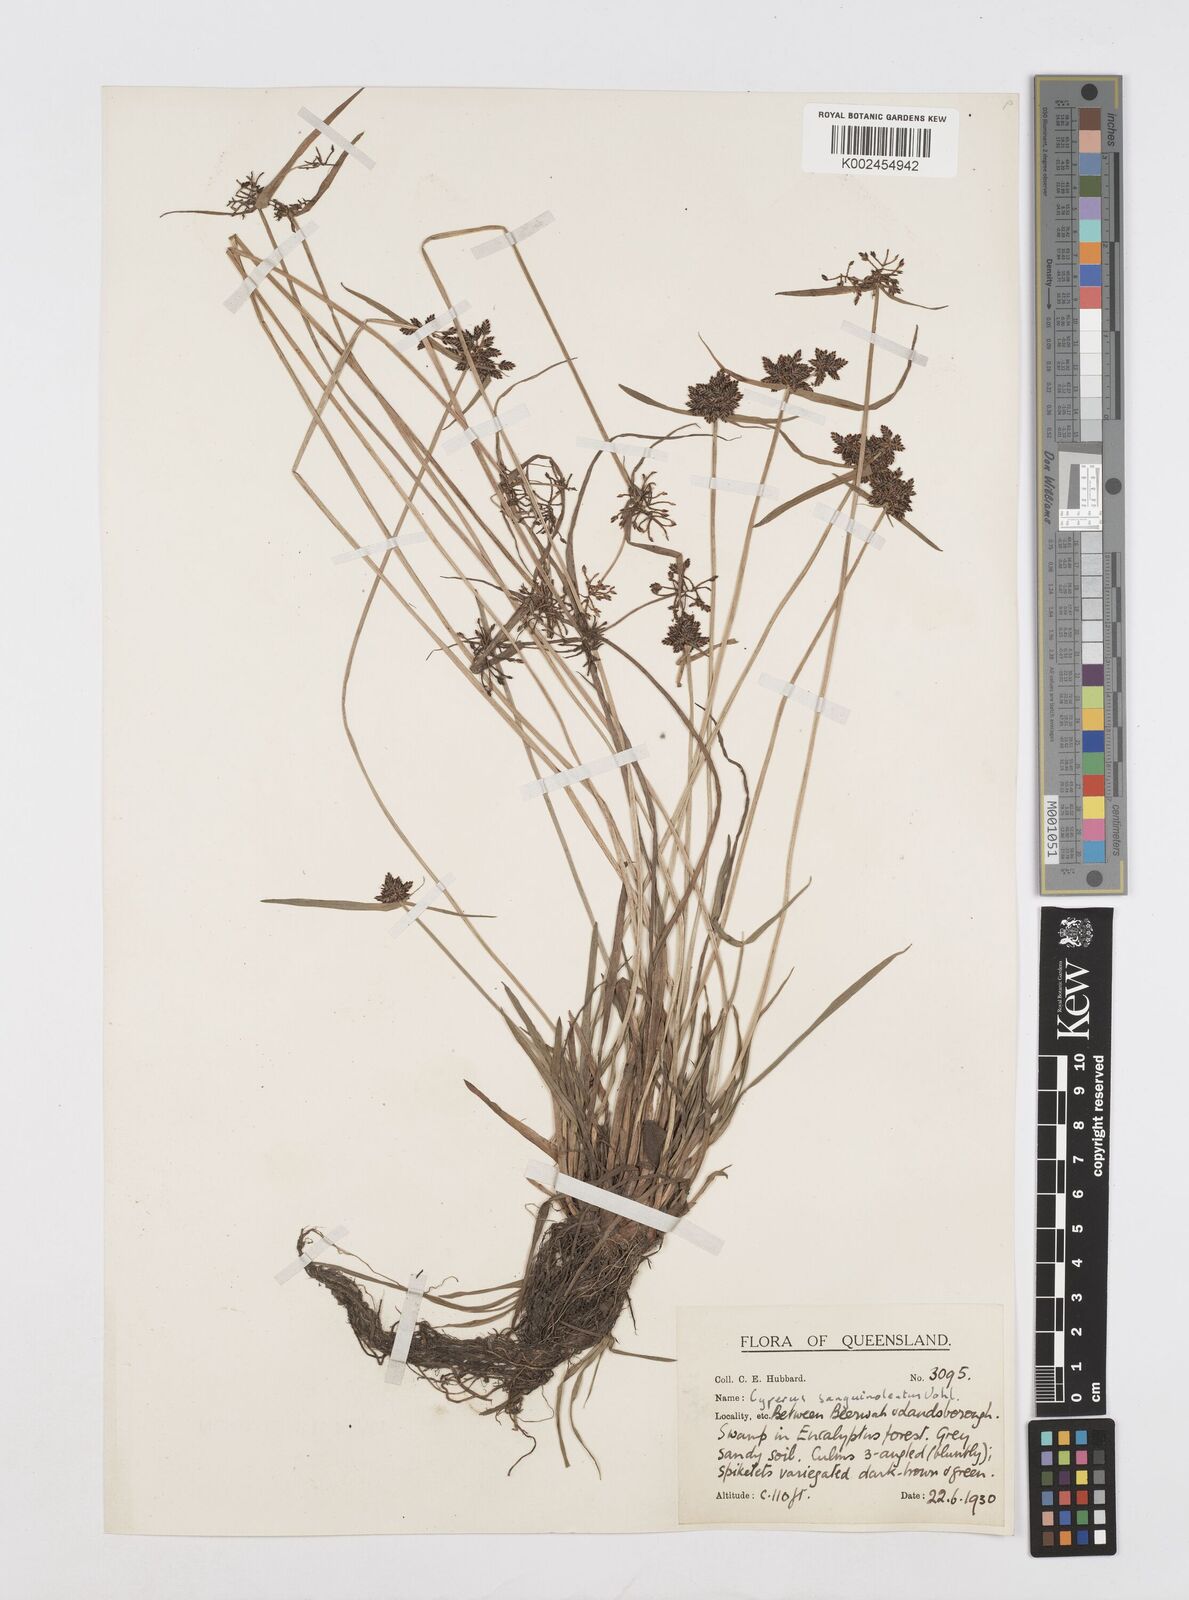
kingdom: Plantae
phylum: Tracheophyta
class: Liliopsida
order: Poales
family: Cyperaceae
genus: Cyperus
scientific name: Cyperus sanguinolentus
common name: Purpleglume flatsedge
